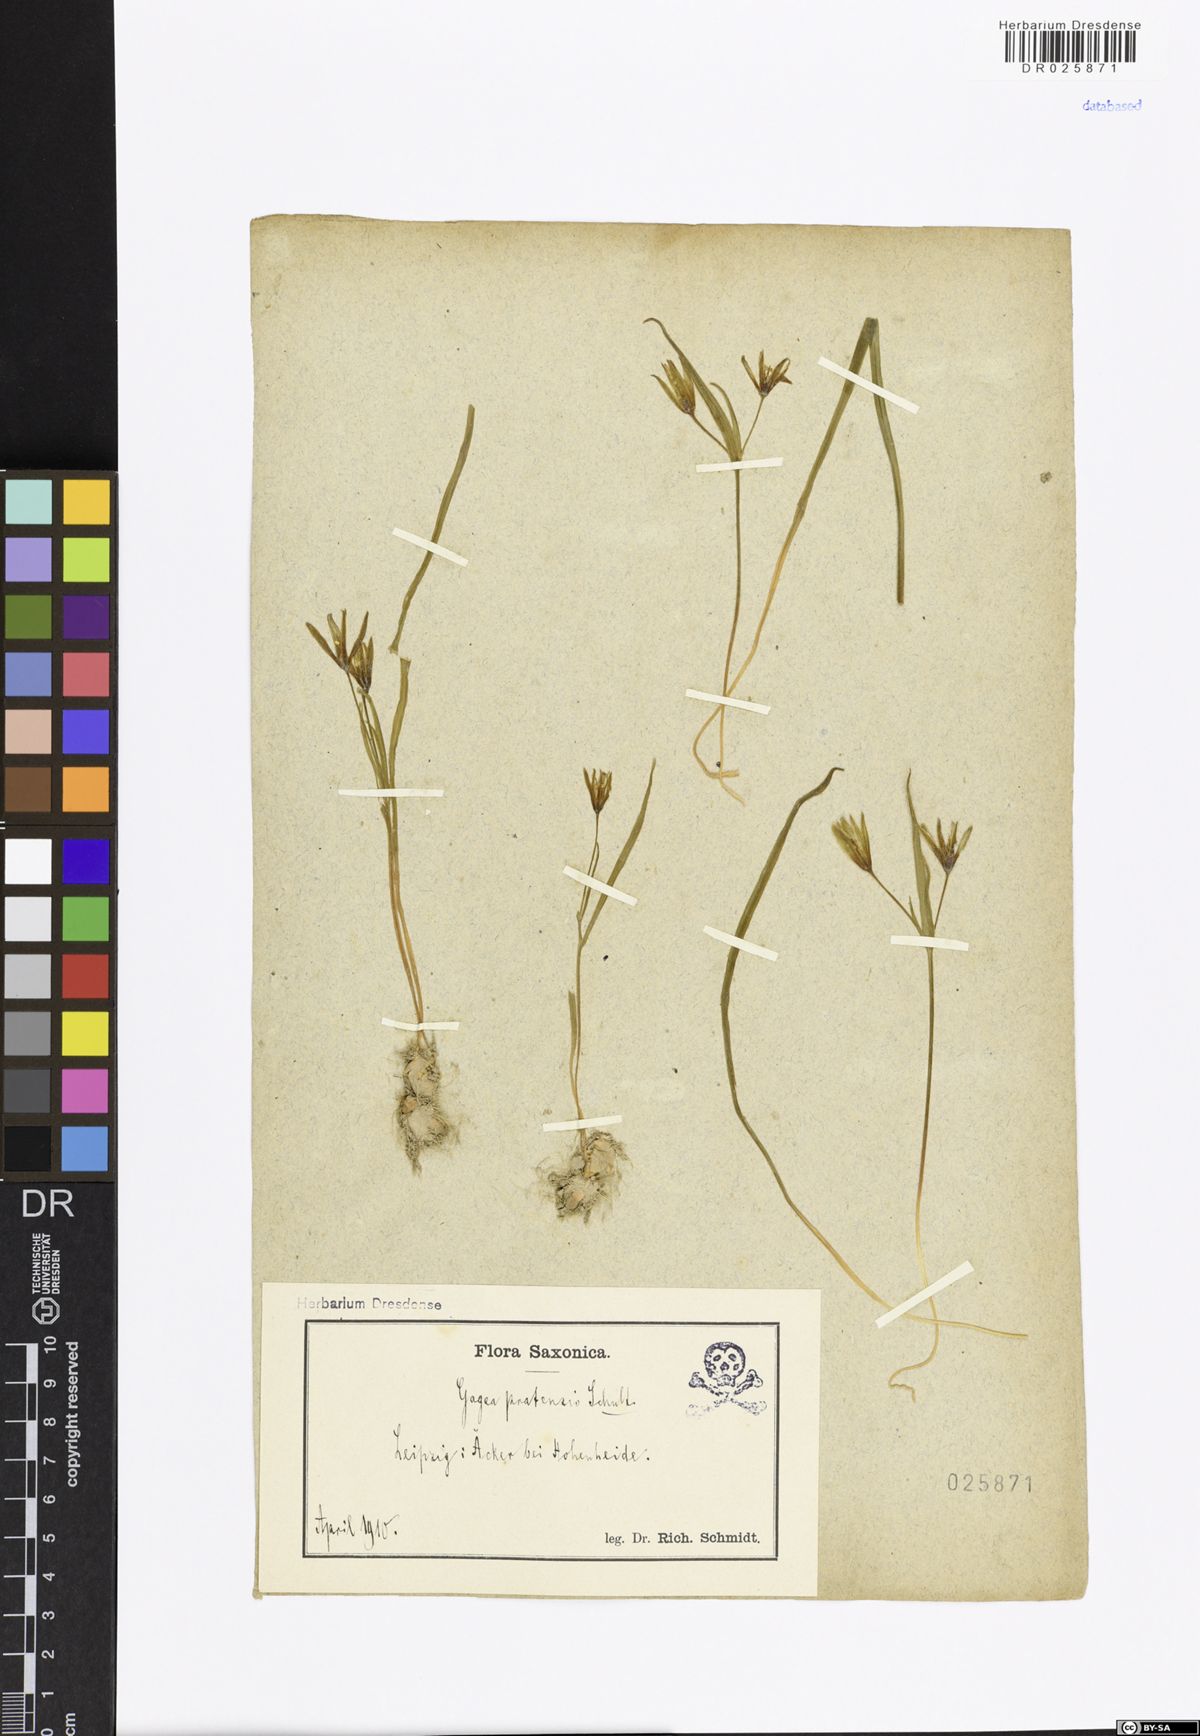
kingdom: Plantae
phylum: Tracheophyta
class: Liliopsida
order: Liliales
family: Liliaceae
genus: Gagea
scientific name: Gagea pratensis
